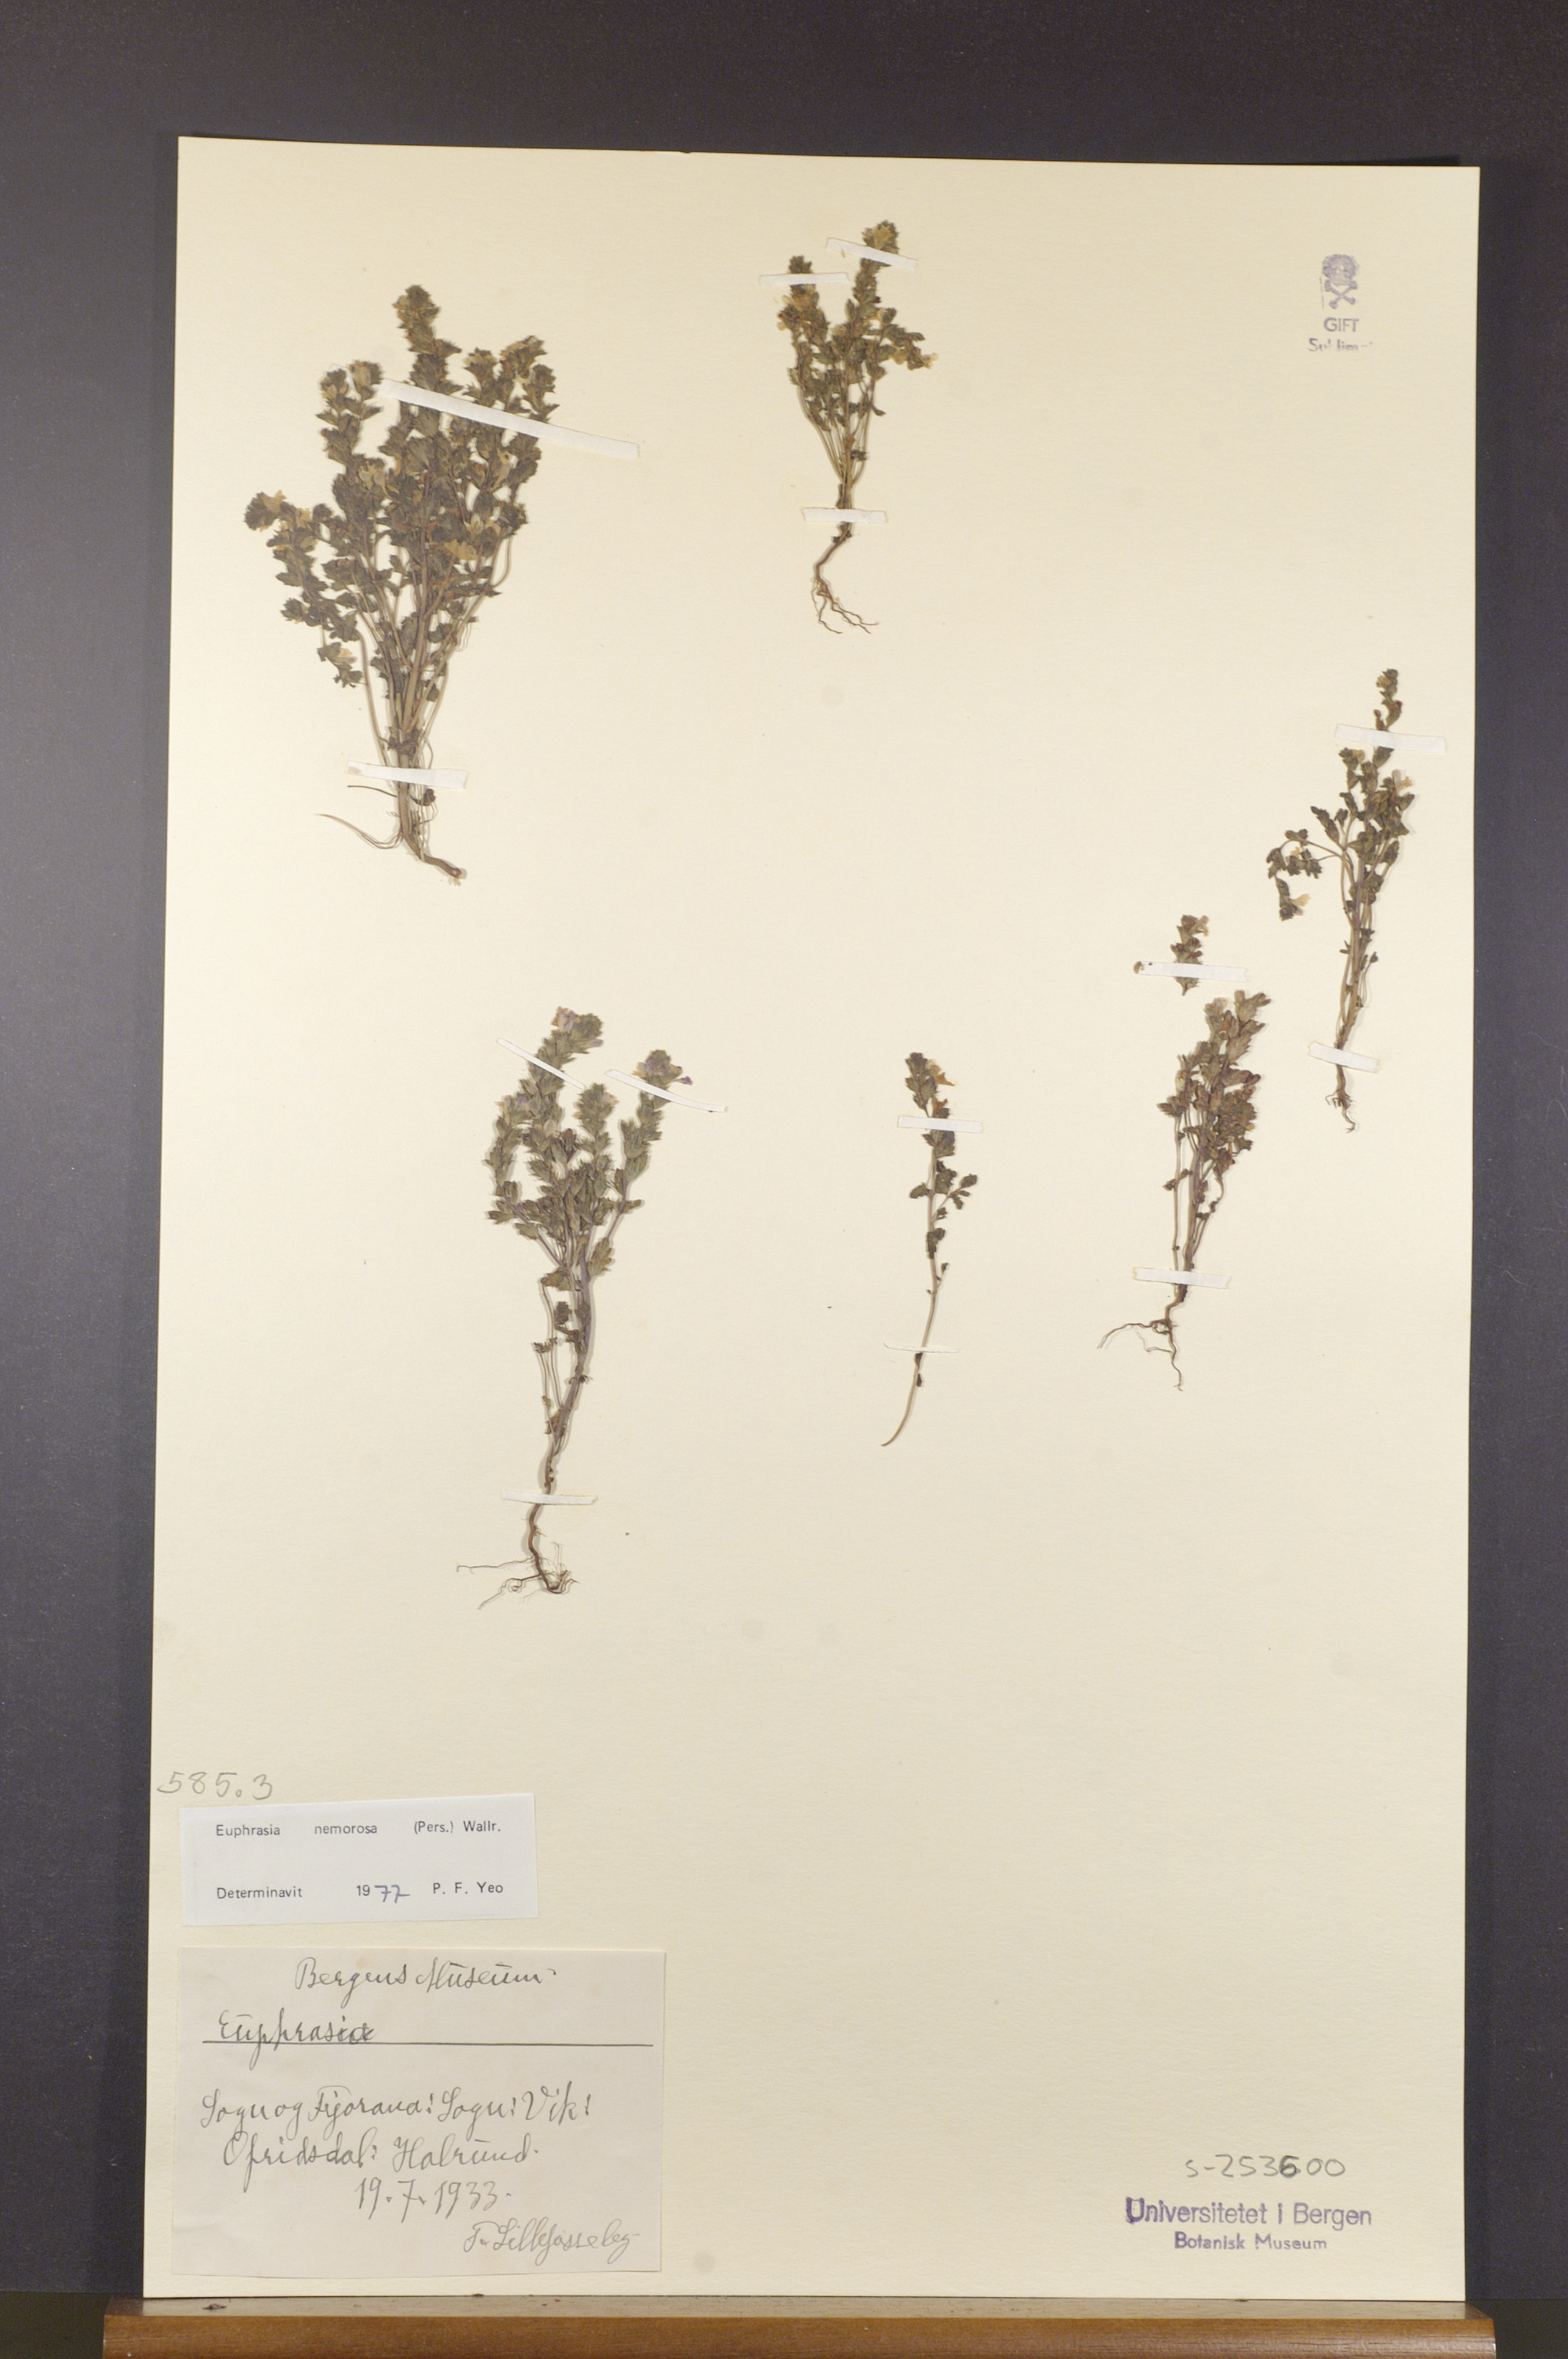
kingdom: Plantae
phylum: Tracheophyta
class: Magnoliopsida
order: Lamiales
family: Orobanchaceae
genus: Euphrasia
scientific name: Euphrasia nemorosa
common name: Common eyebright
